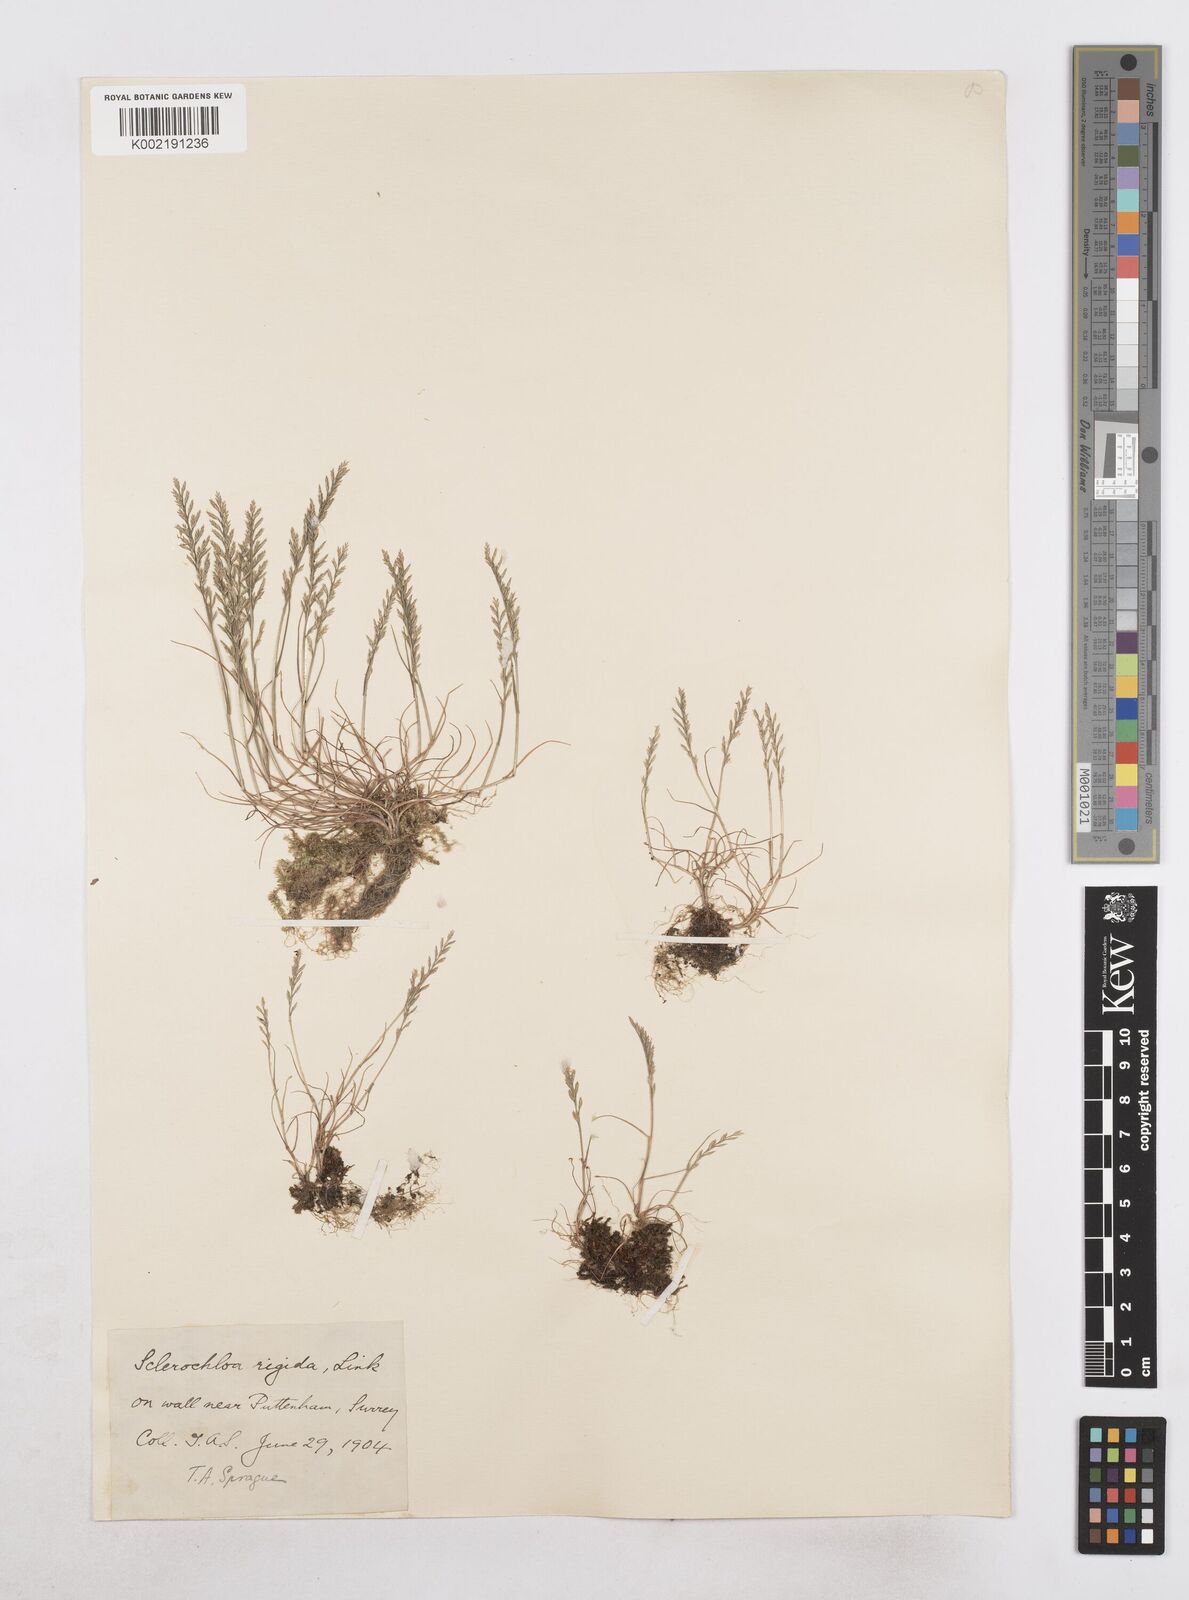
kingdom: Plantae
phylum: Tracheophyta
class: Liliopsida
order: Poales
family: Poaceae
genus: Catapodium
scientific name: Catapodium rigidum
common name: Fern-grass
